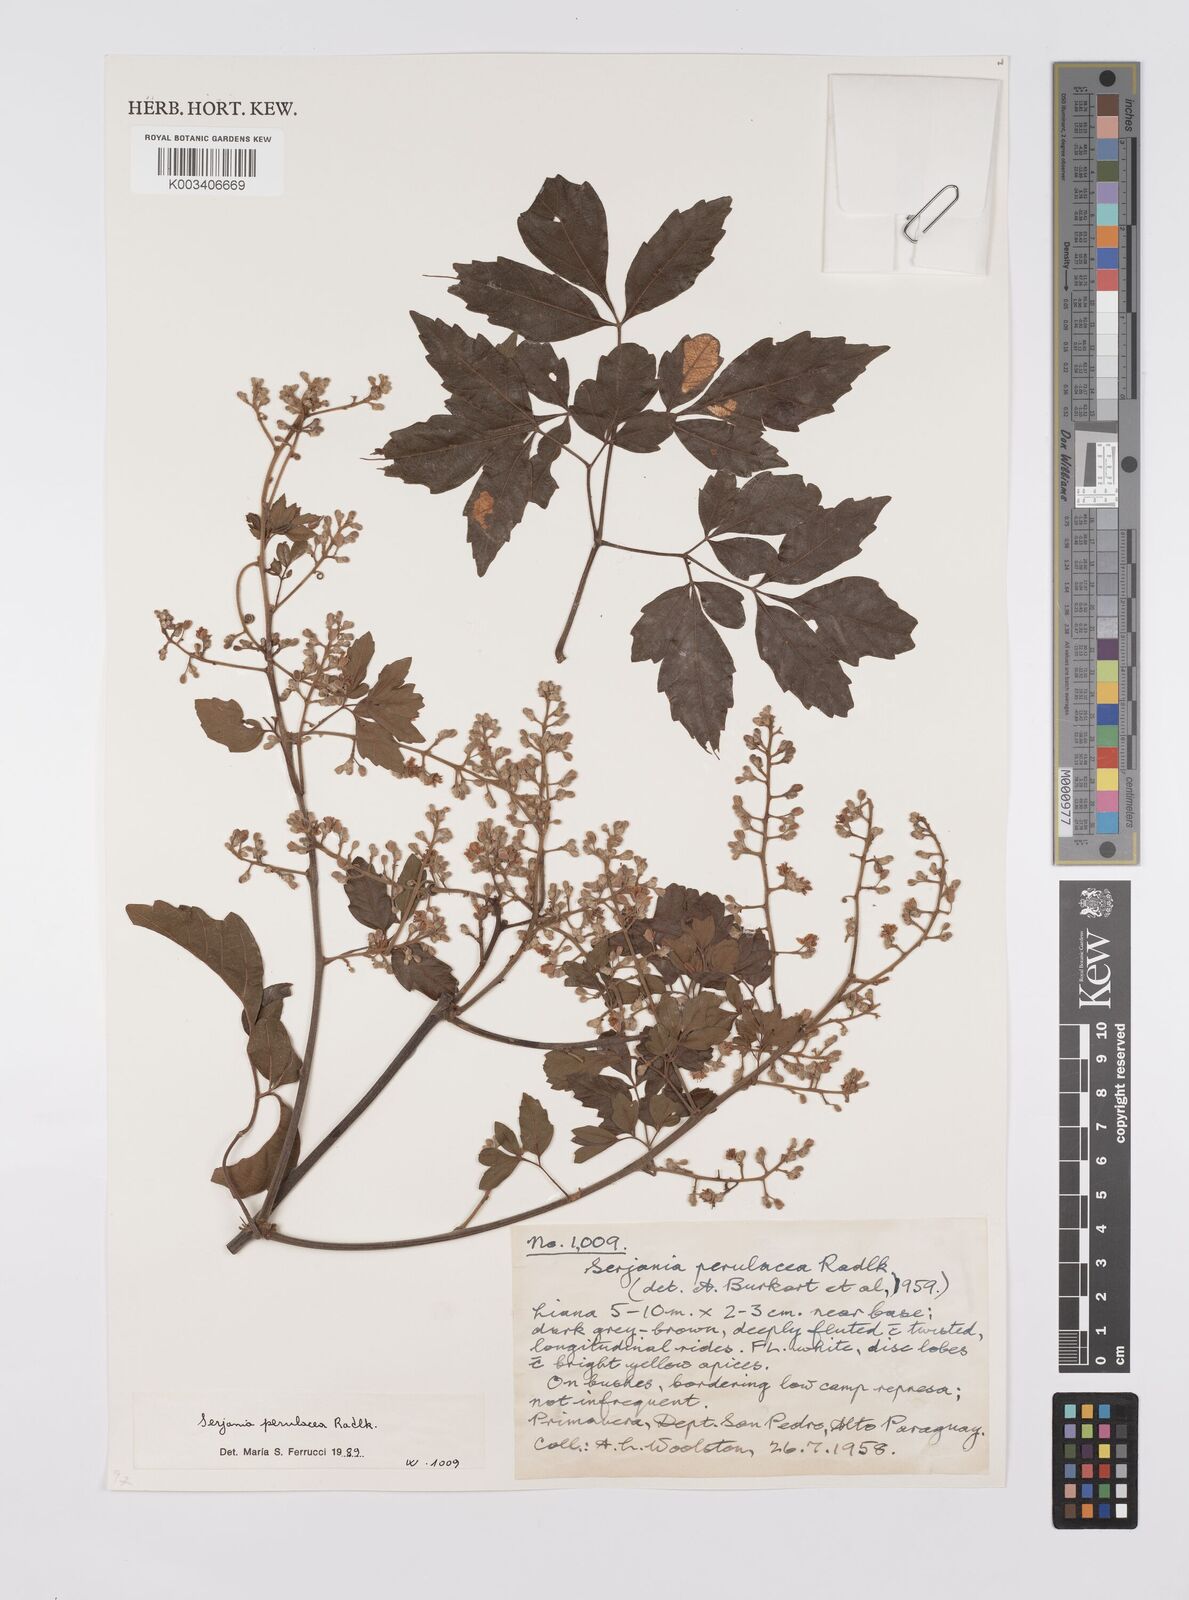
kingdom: Plantae
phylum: Tracheophyta
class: Magnoliopsida
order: Sapindales
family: Sapindaceae
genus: Serjania
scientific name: Serjania perulacea
